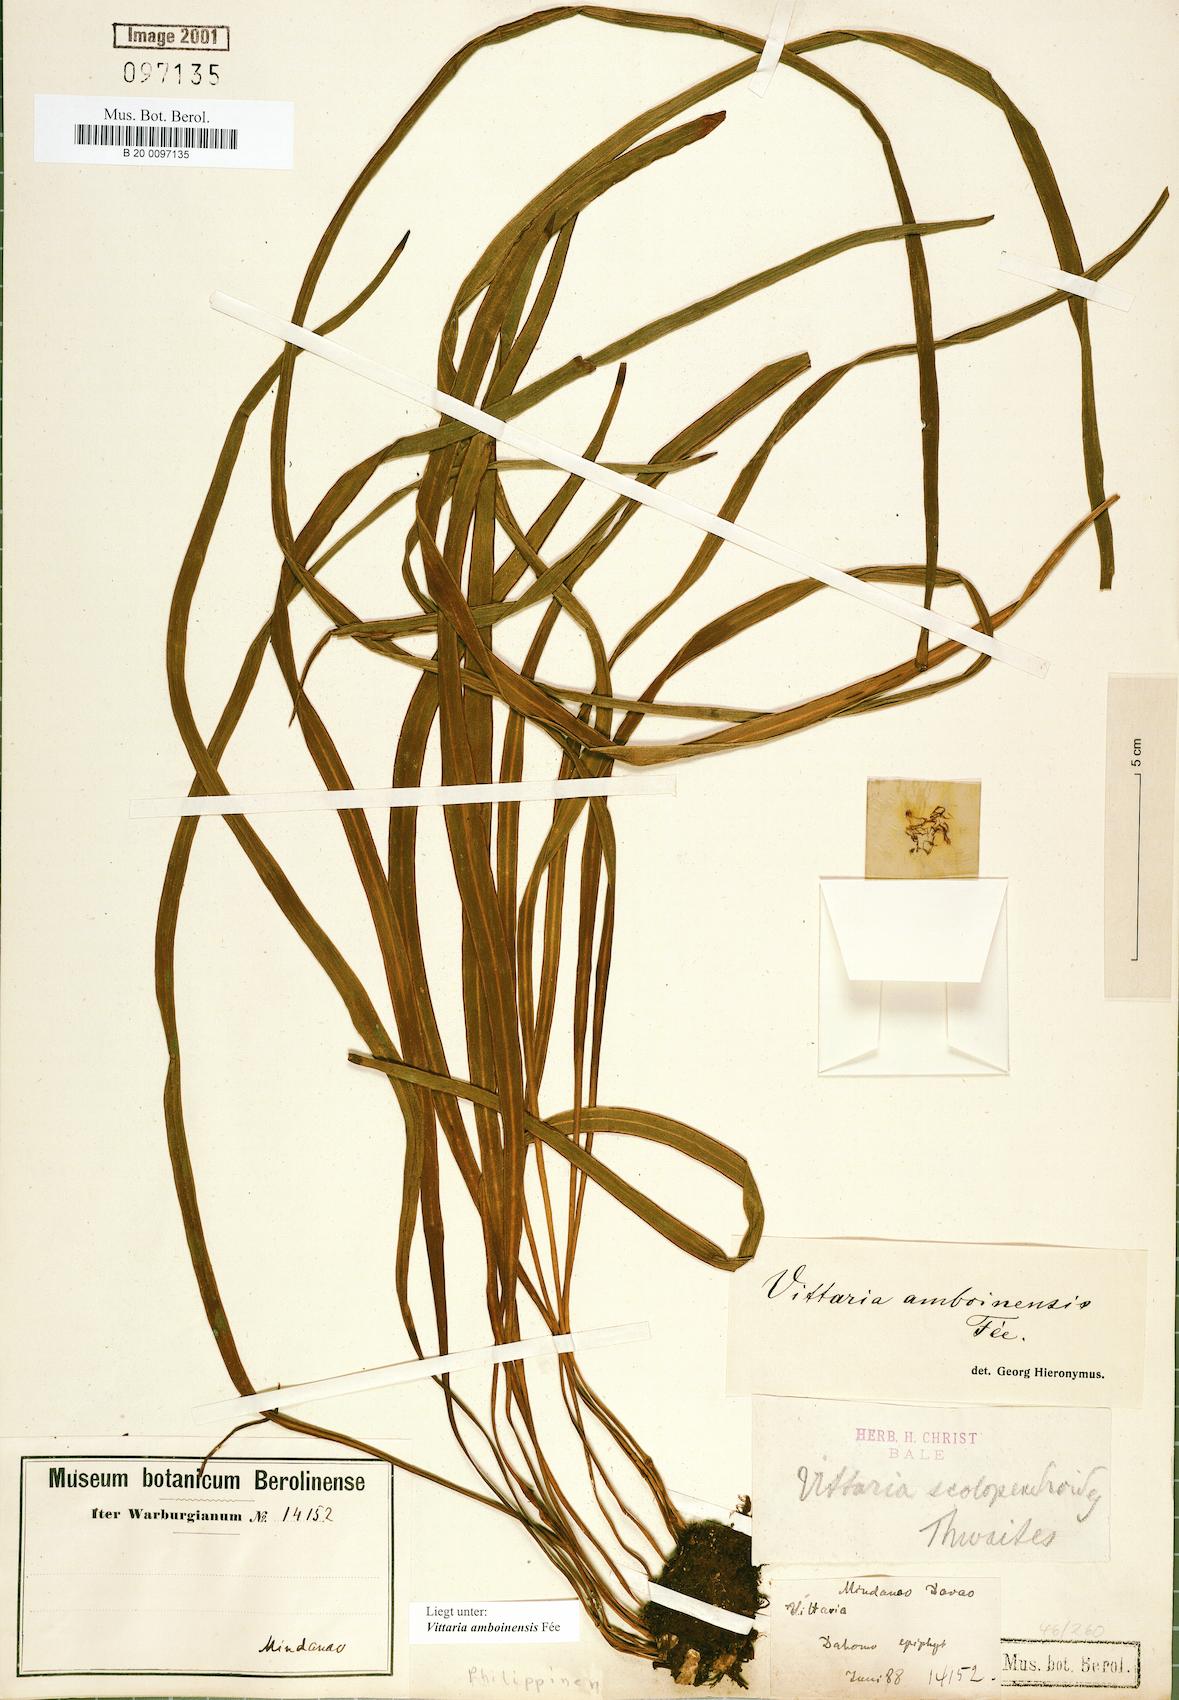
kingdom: Plantae
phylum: Tracheophyta
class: Polypodiopsida
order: Polypodiales
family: Pteridaceae
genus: Haplopteris
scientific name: Haplopteris amboinensis
